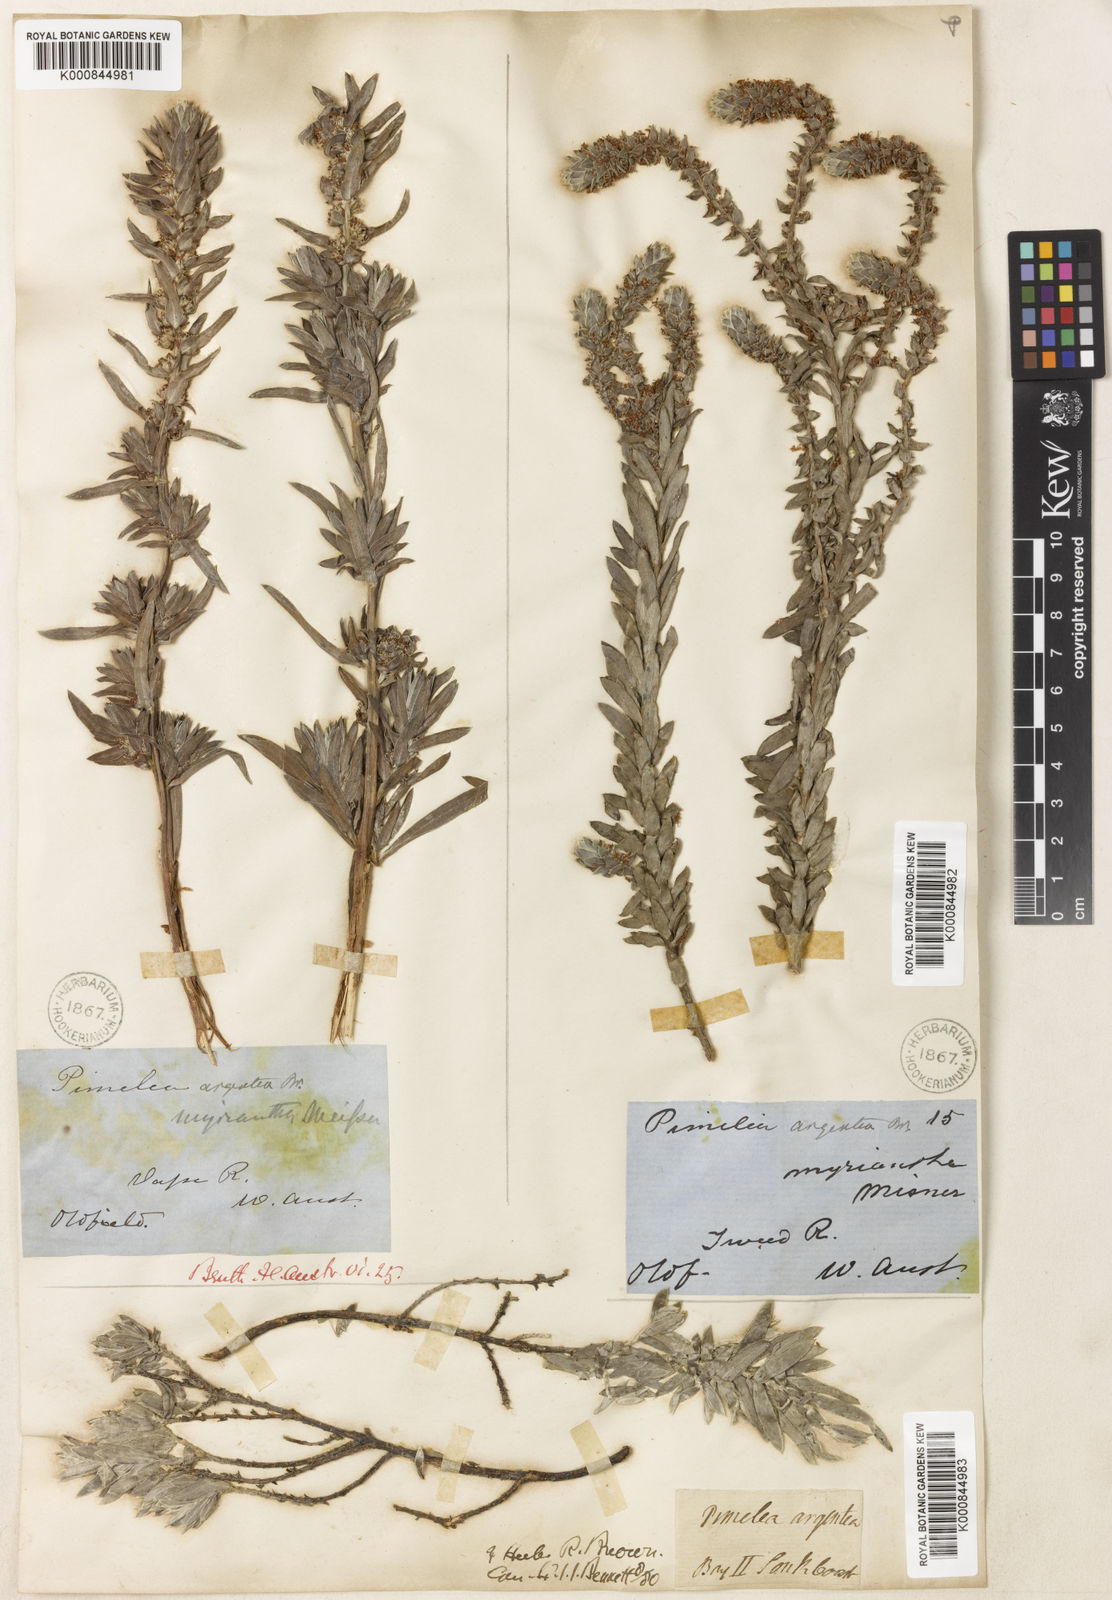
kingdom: Plantae
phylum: Tracheophyta
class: Magnoliopsida
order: Malvales
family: Thymelaeaceae
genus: Pimelea
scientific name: Pimelea argentea
